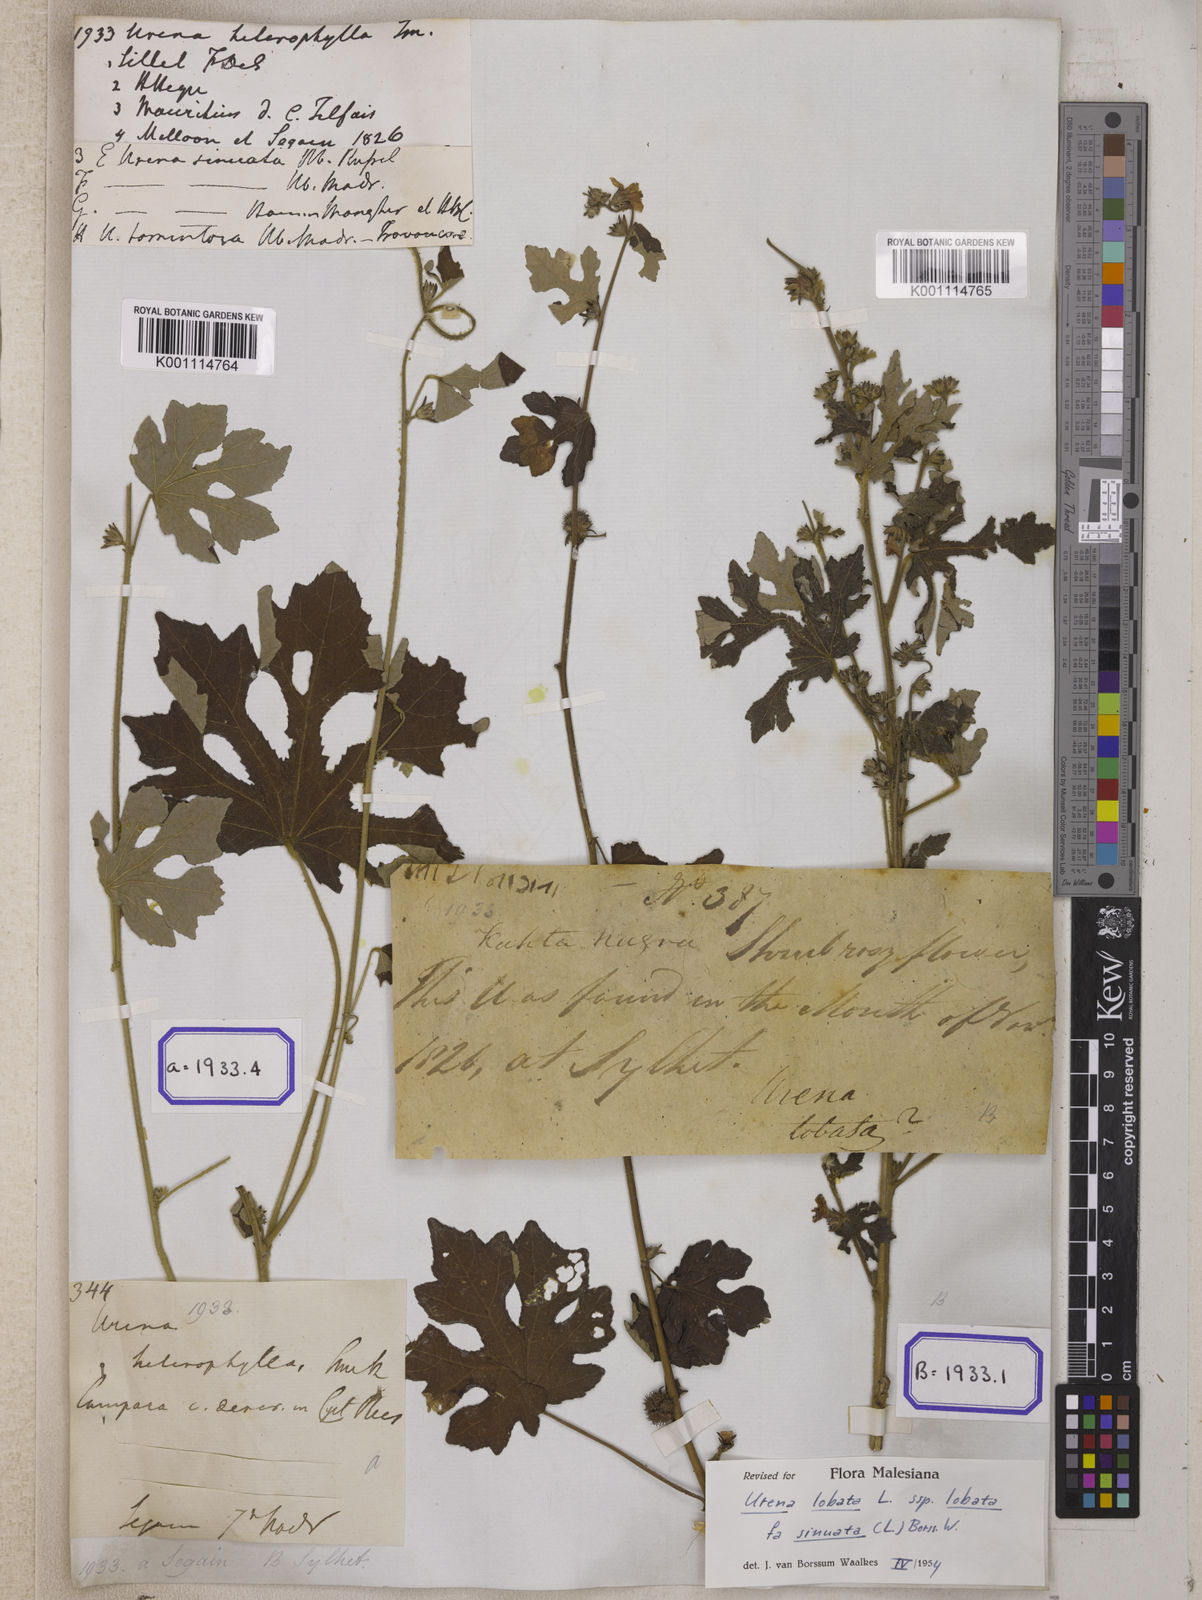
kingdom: Plantae
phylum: Tracheophyta
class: Magnoliopsida
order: Malvales
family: Malvaceae
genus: Urena
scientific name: Urena procumbens
